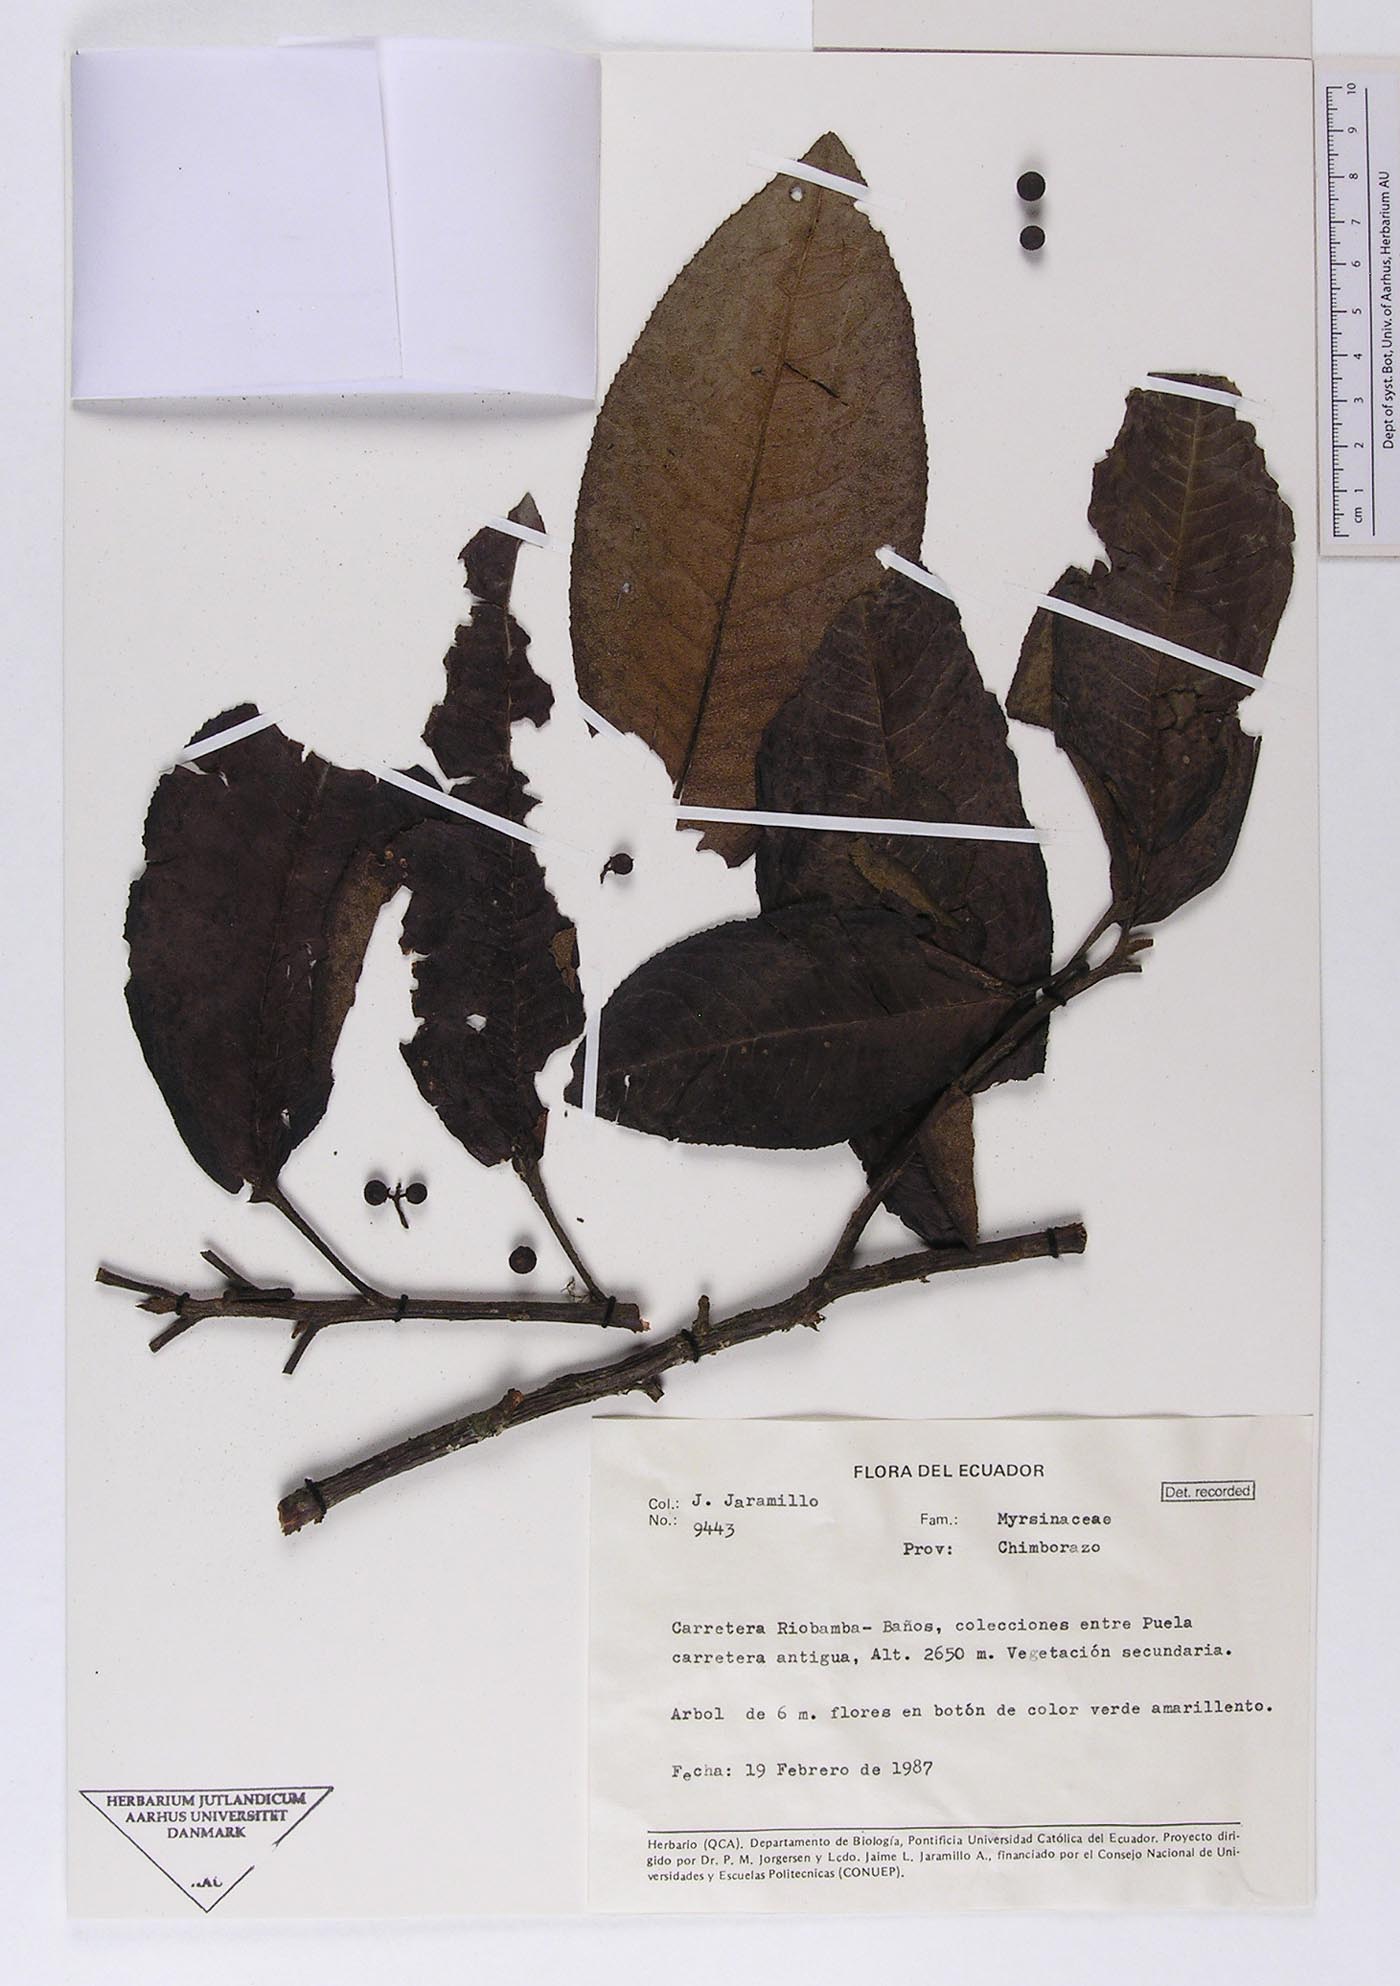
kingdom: Plantae
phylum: Tracheophyta
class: Magnoliopsida
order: Ericales
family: Primulaceae
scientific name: Primulaceae
